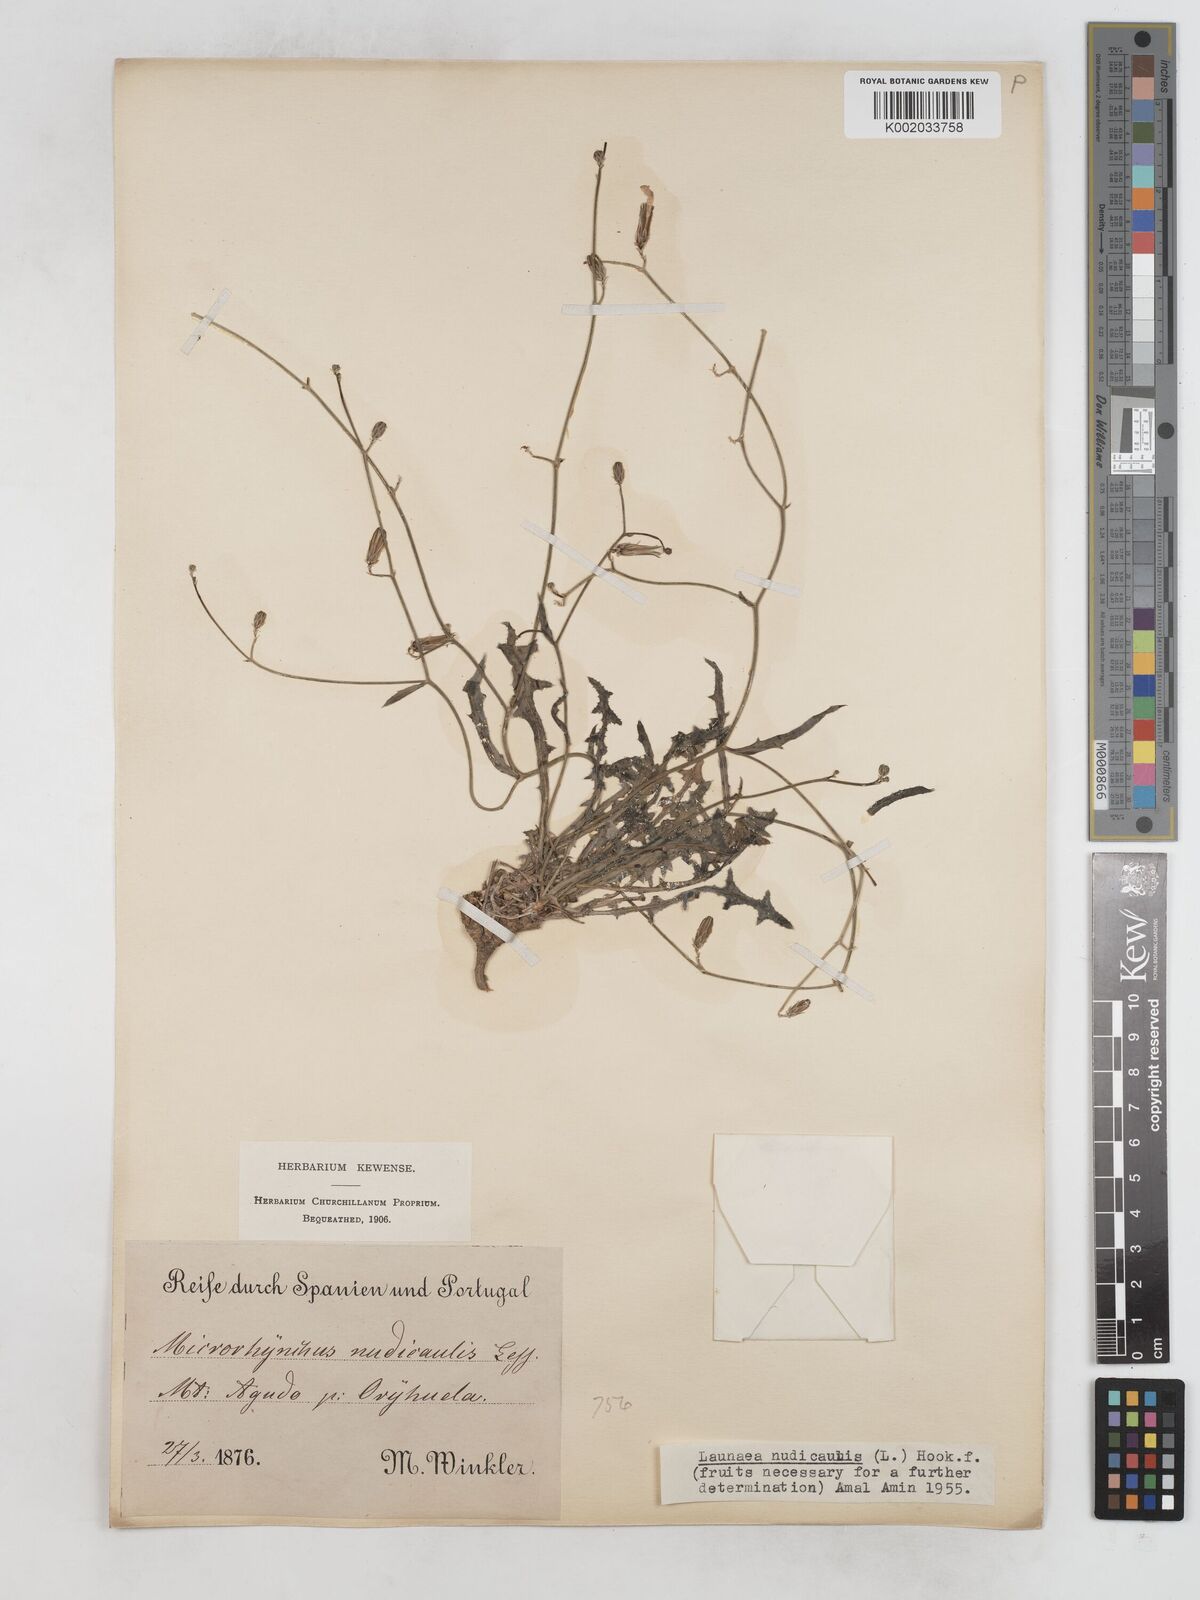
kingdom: Plantae
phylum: Tracheophyta
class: Magnoliopsida
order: Asterales
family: Asteraceae
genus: Launaea
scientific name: Launaea nudicaulis
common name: Naked launaea
